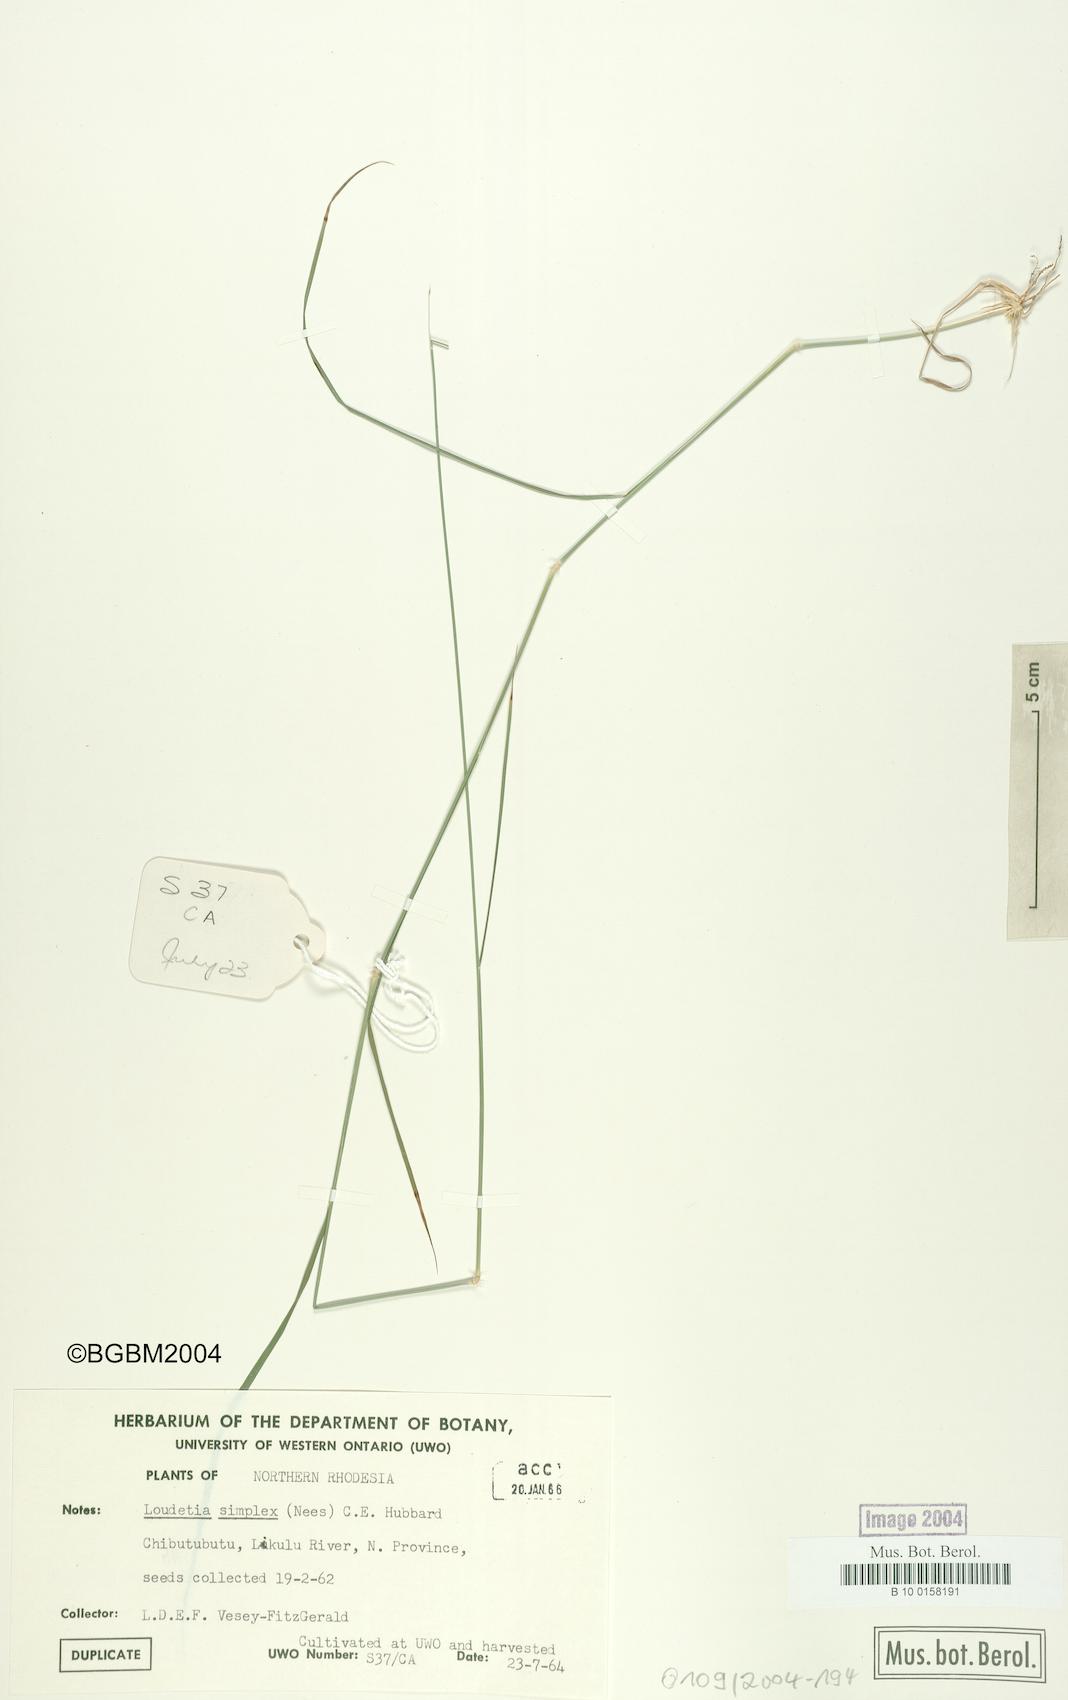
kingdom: Plantae
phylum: Tracheophyta
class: Liliopsida
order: Poales
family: Poaceae
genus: Loudetia
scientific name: Loudetia simplex
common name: Common russet grass
